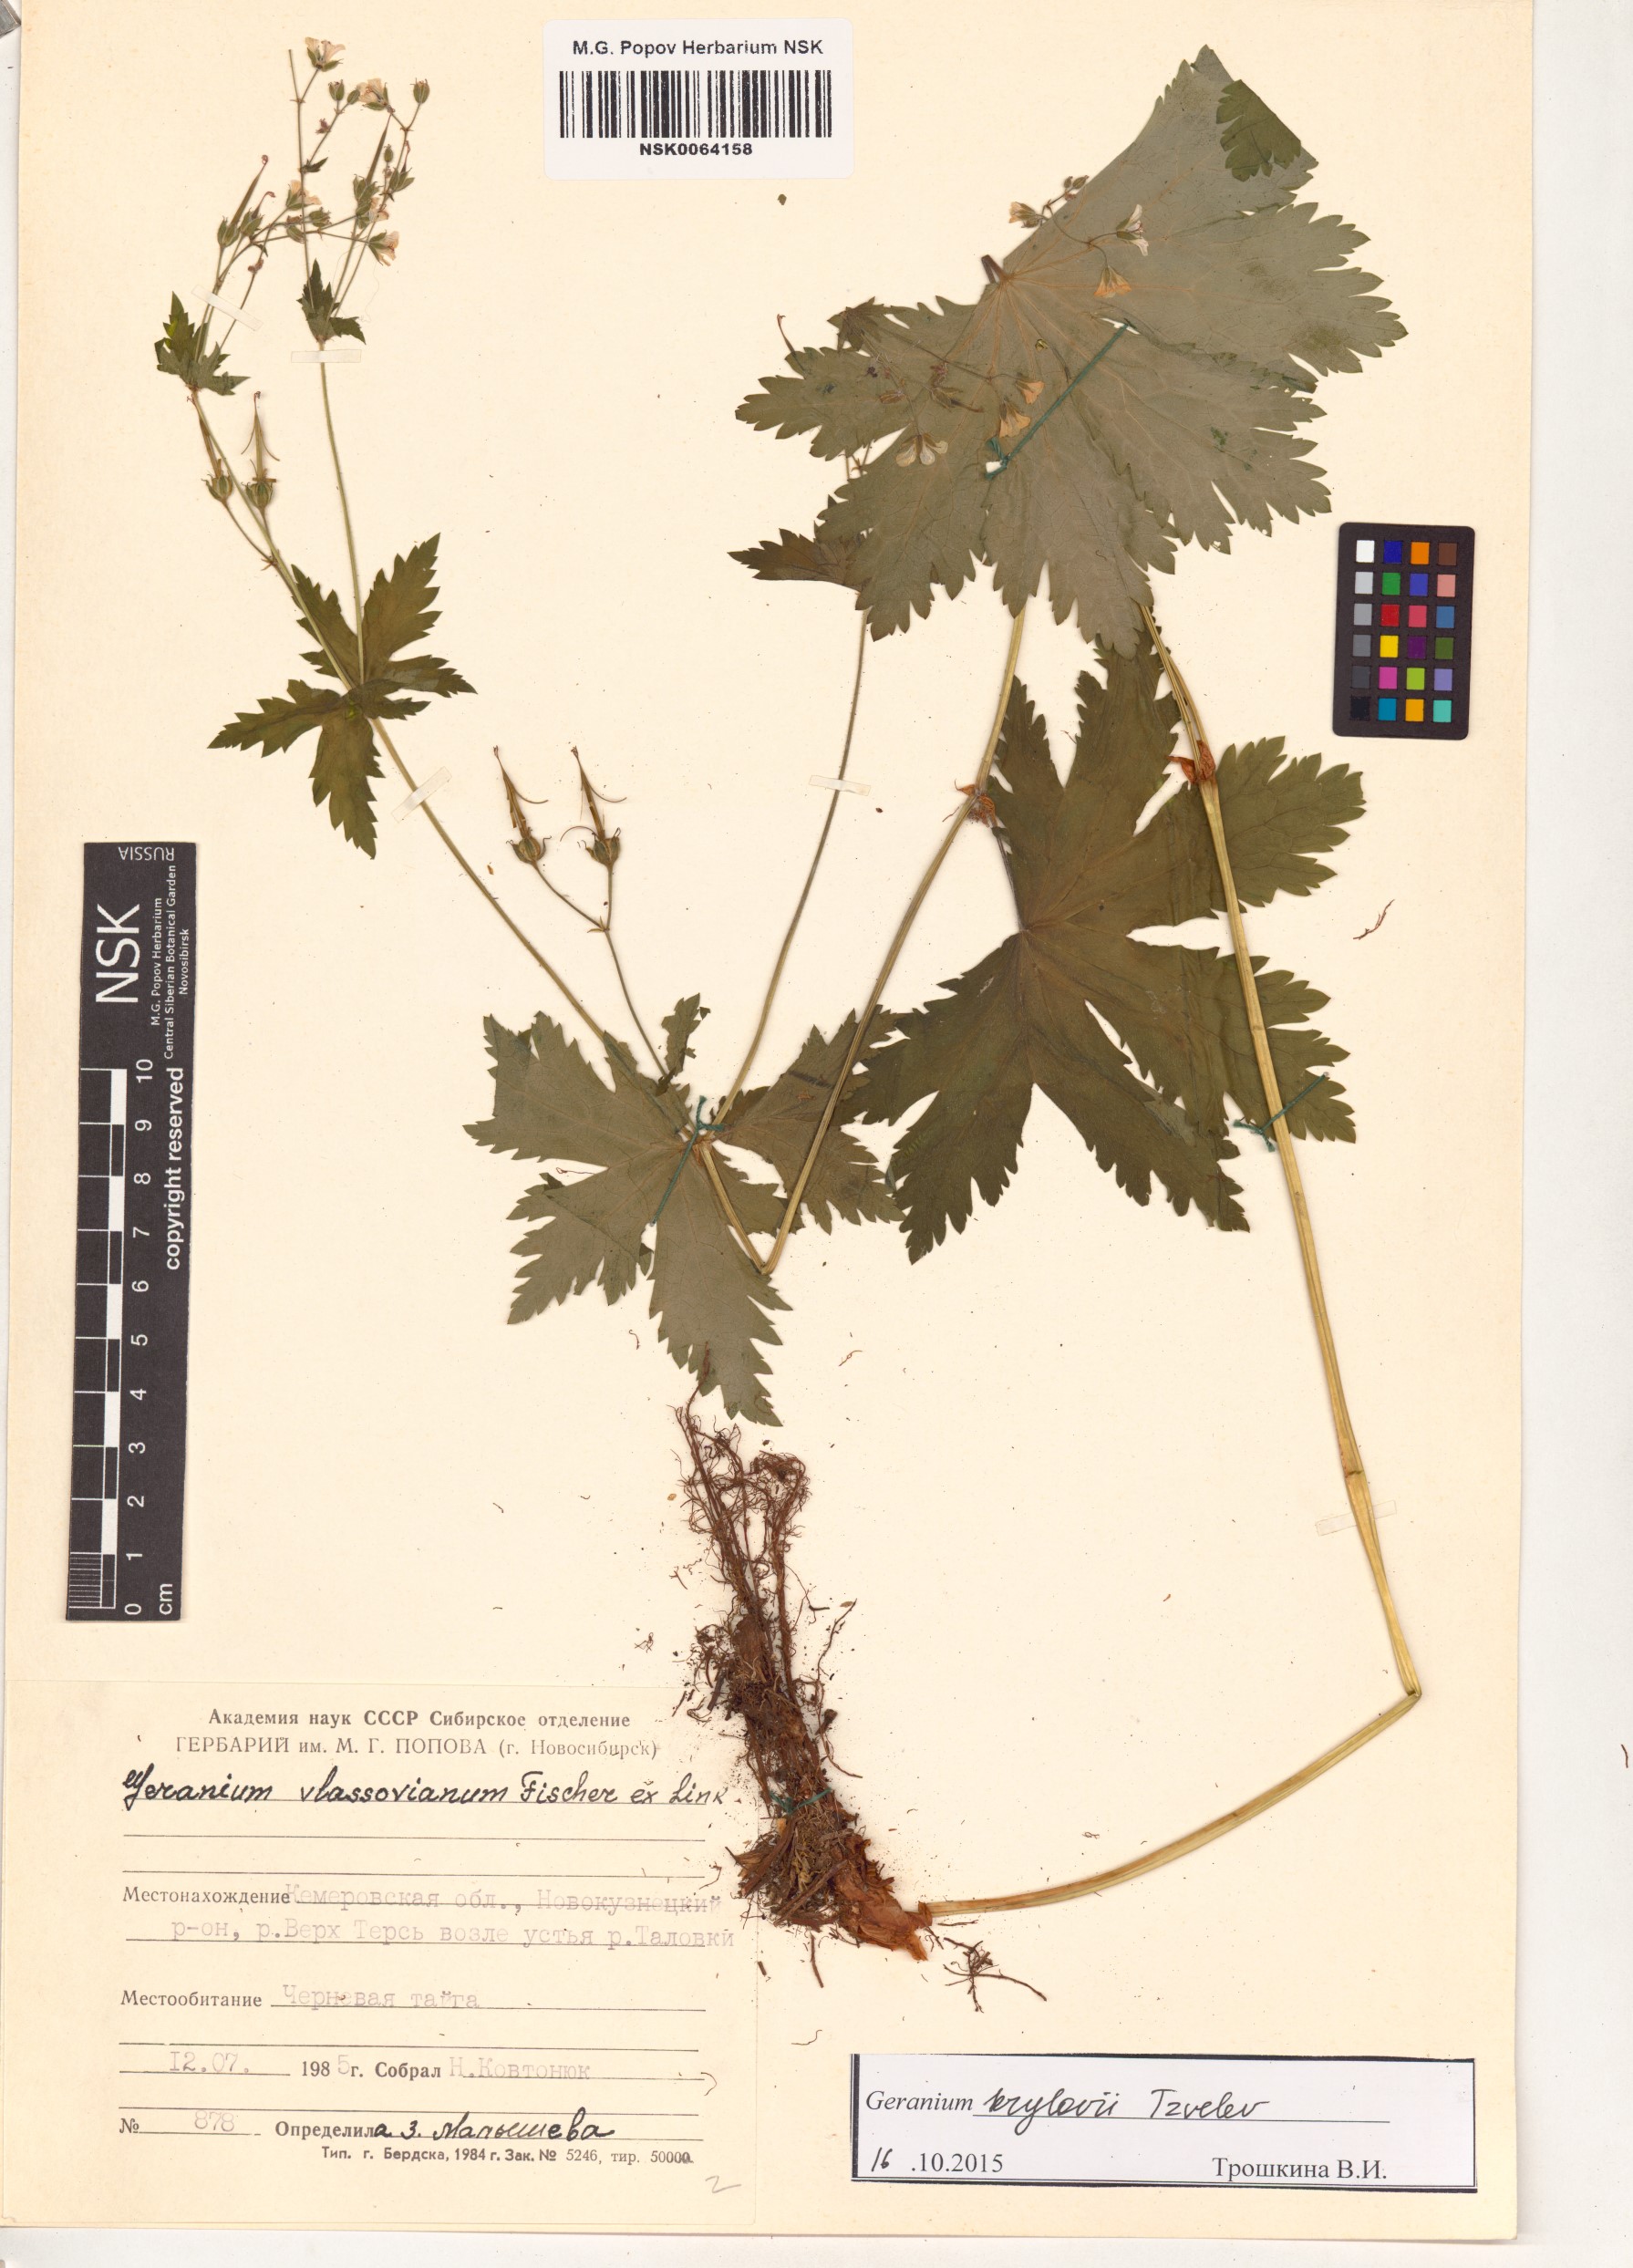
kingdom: Plantae
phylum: Tracheophyta
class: Magnoliopsida
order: Geraniales
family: Geraniaceae
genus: Geranium
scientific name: Geranium sylvaticum
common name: Wood crane's-bill
